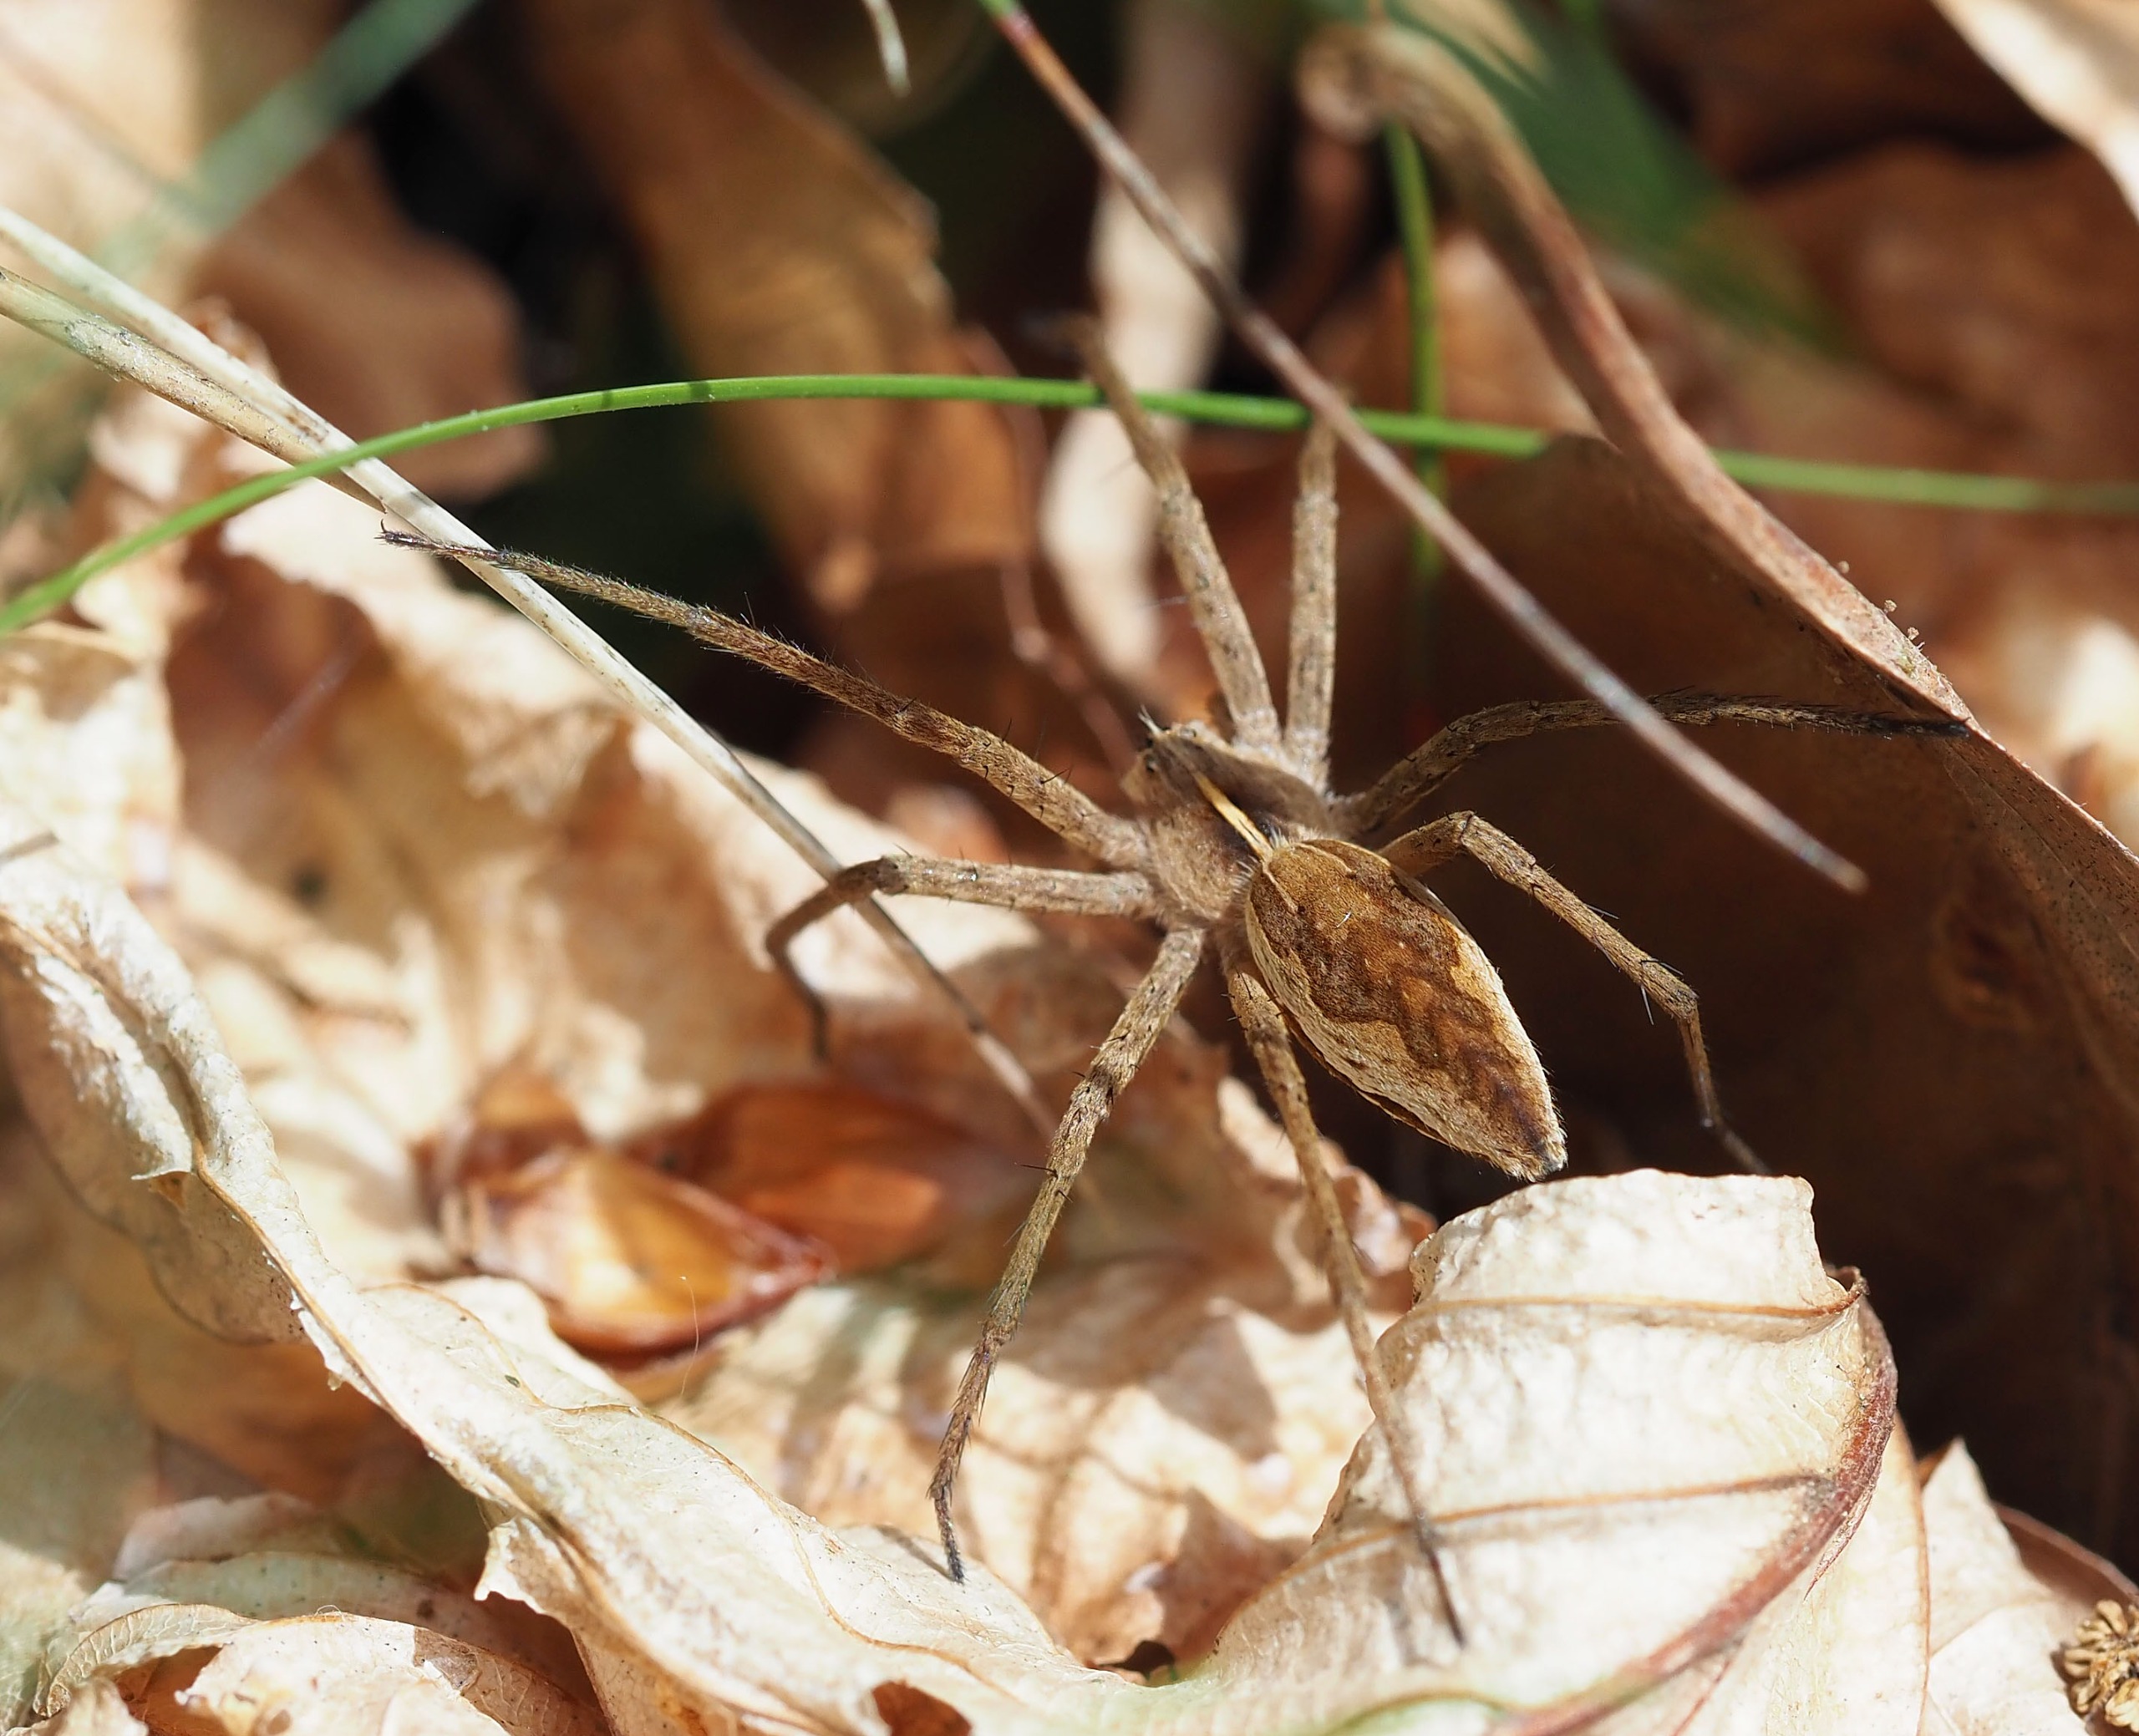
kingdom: Animalia
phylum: Arthropoda
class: Arachnida
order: Araneae
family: Pisauridae
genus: Pisaura
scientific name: Pisaura mirabilis
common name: Almindelig rovedderkop
